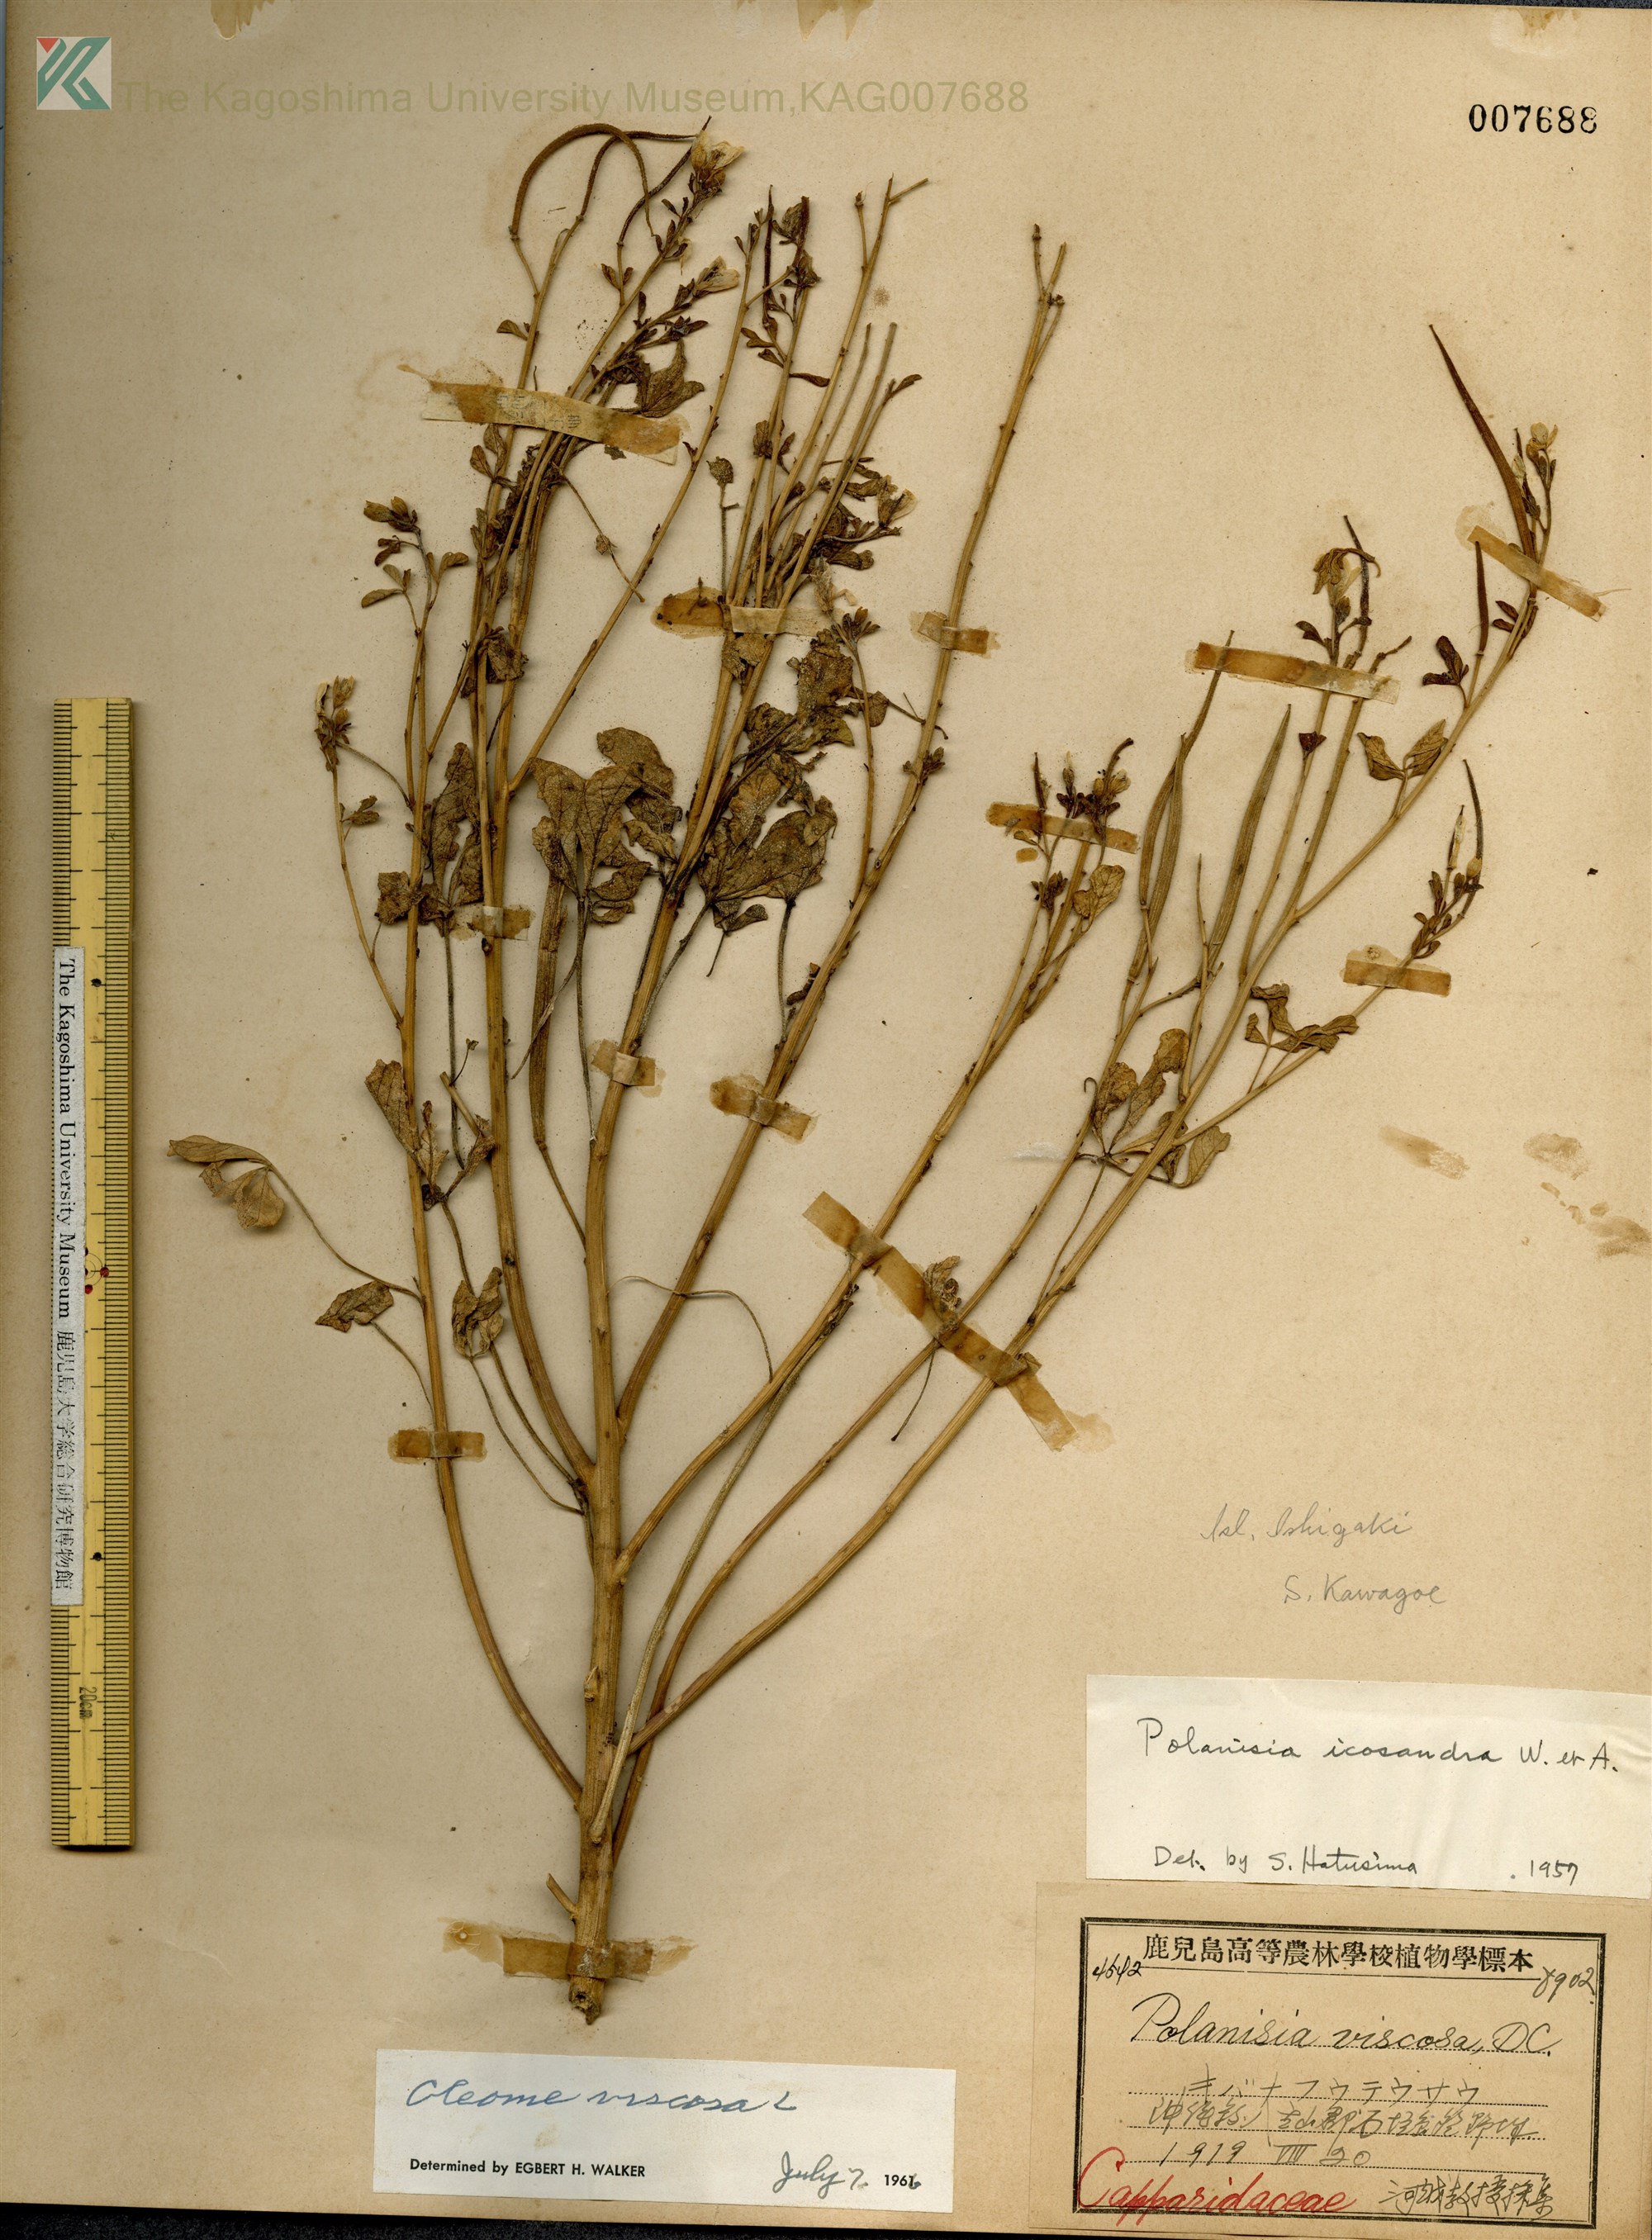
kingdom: Plantae
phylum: Tracheophyta
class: Magnoliopsida
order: Brassicales
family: Cleomaceae
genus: Arivela
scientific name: Arivela viscosa
